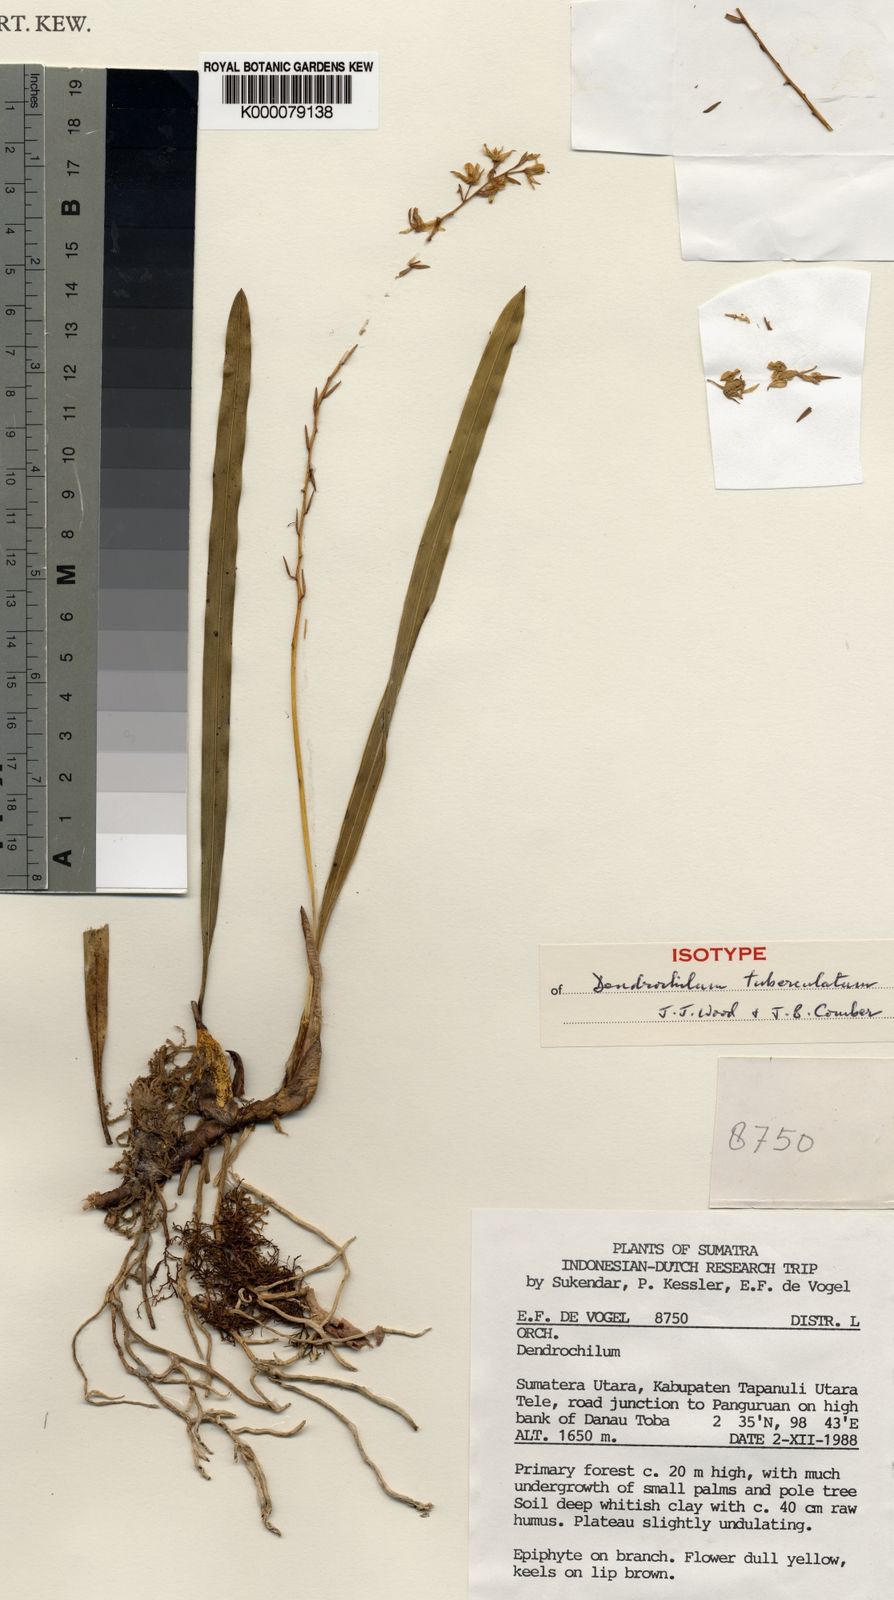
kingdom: Plantae
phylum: Tracheophyta
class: Liliopsida
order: Asparagales
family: Orchidaceae
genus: Coelogyne
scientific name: Coelogyne tuberculata
